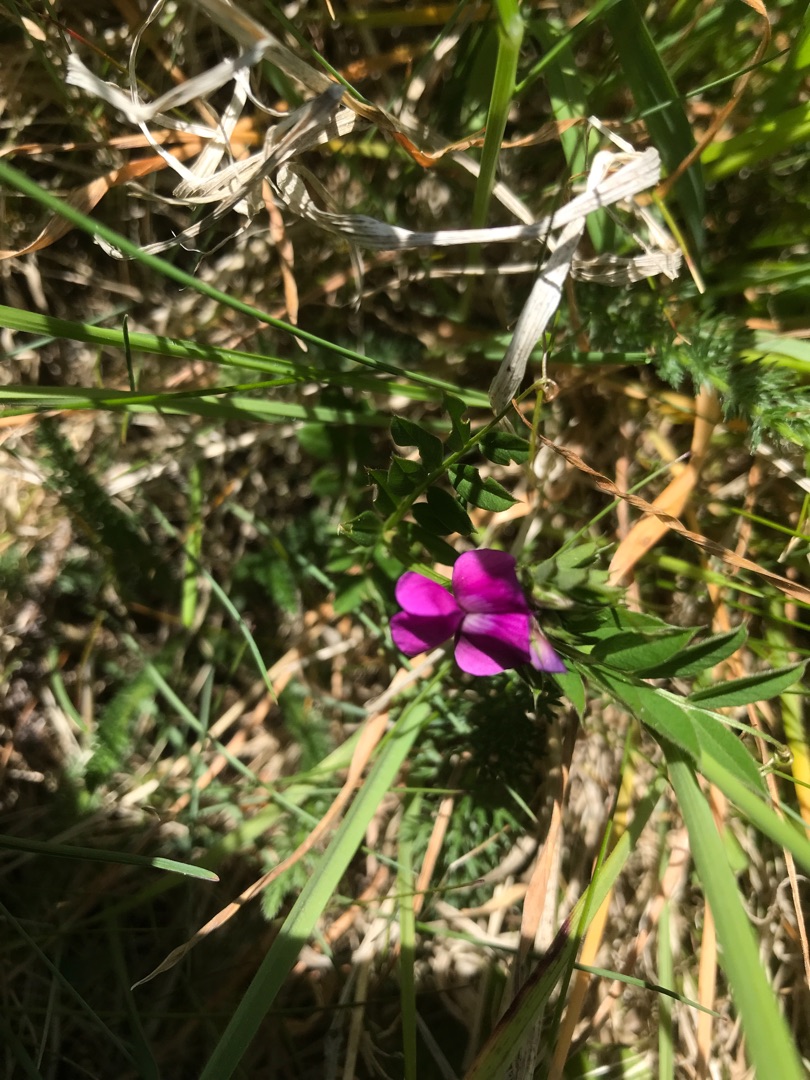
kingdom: Plantae
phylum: Tracheophyta
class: Magnoliopsida
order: Fabales
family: Fabaceae
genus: Vicia
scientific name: Vicia sativa
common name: Foder-vikke
